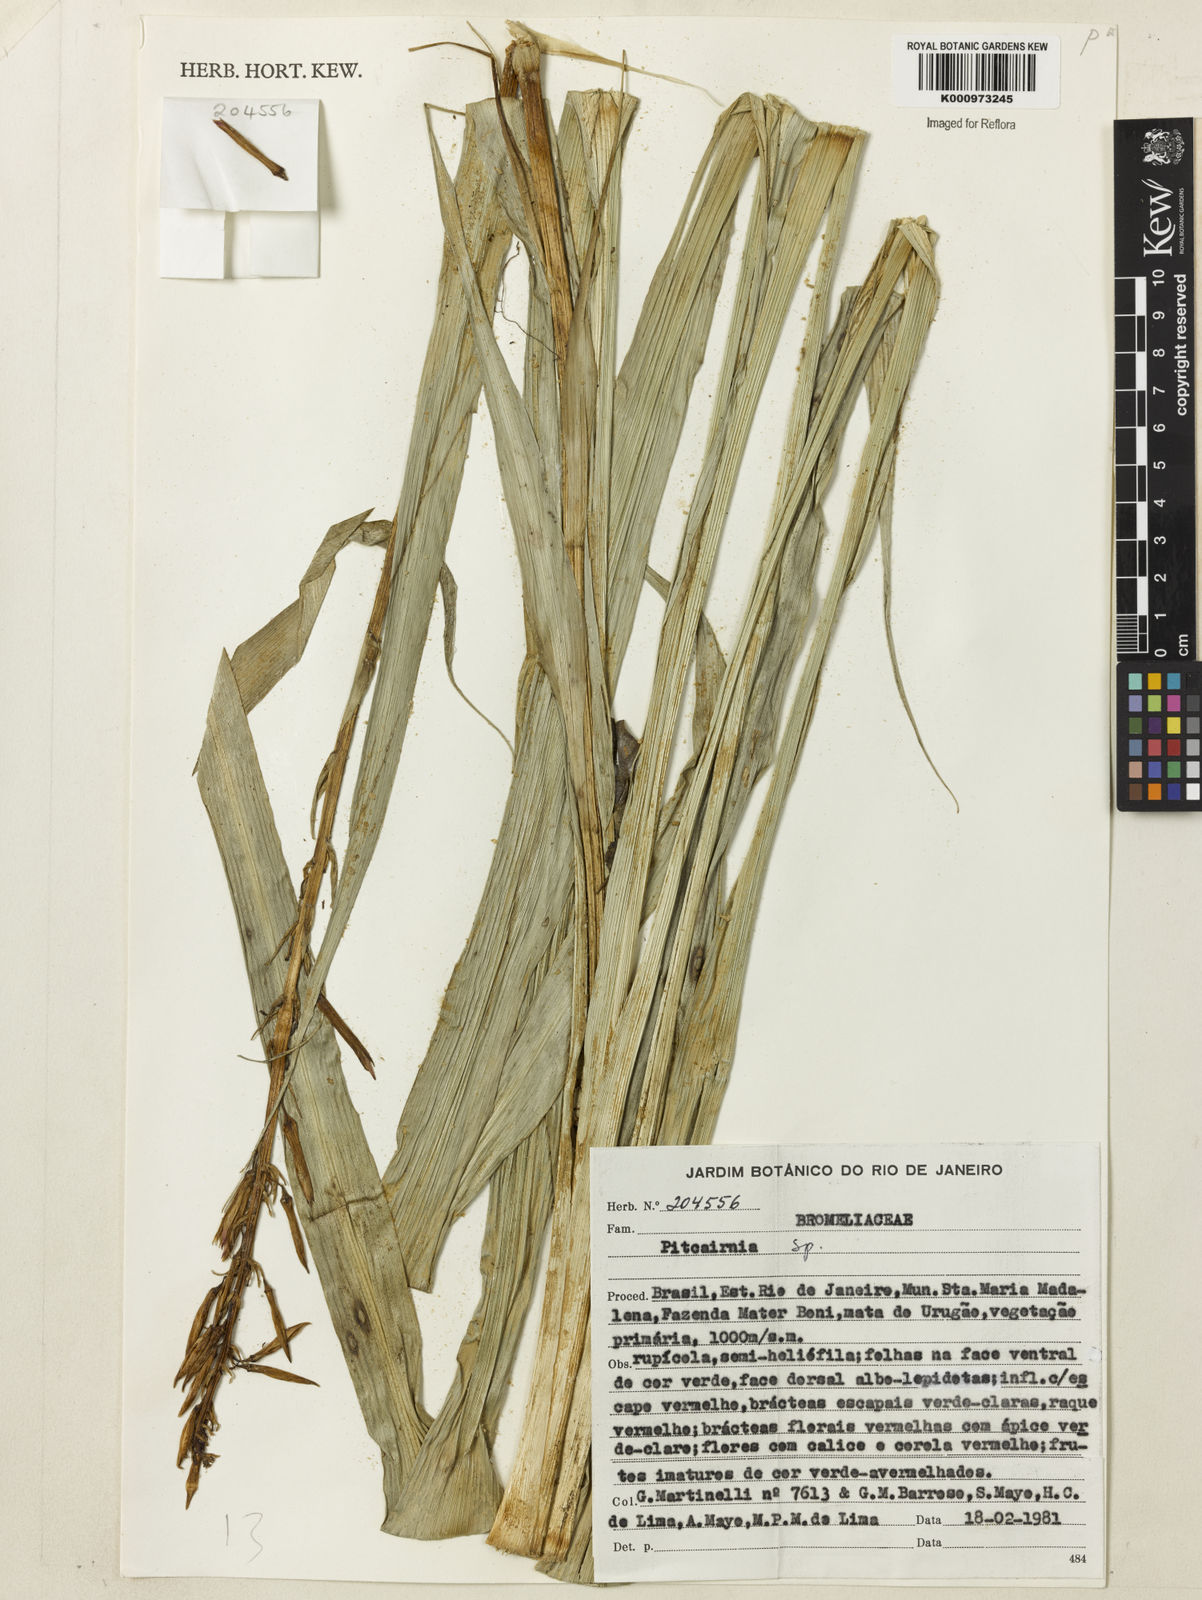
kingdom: Plantae
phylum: Tracheophyta
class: Liliopsida
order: Poales
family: Bromeliaceae
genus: Pitcairnia
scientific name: Pitcairnia
